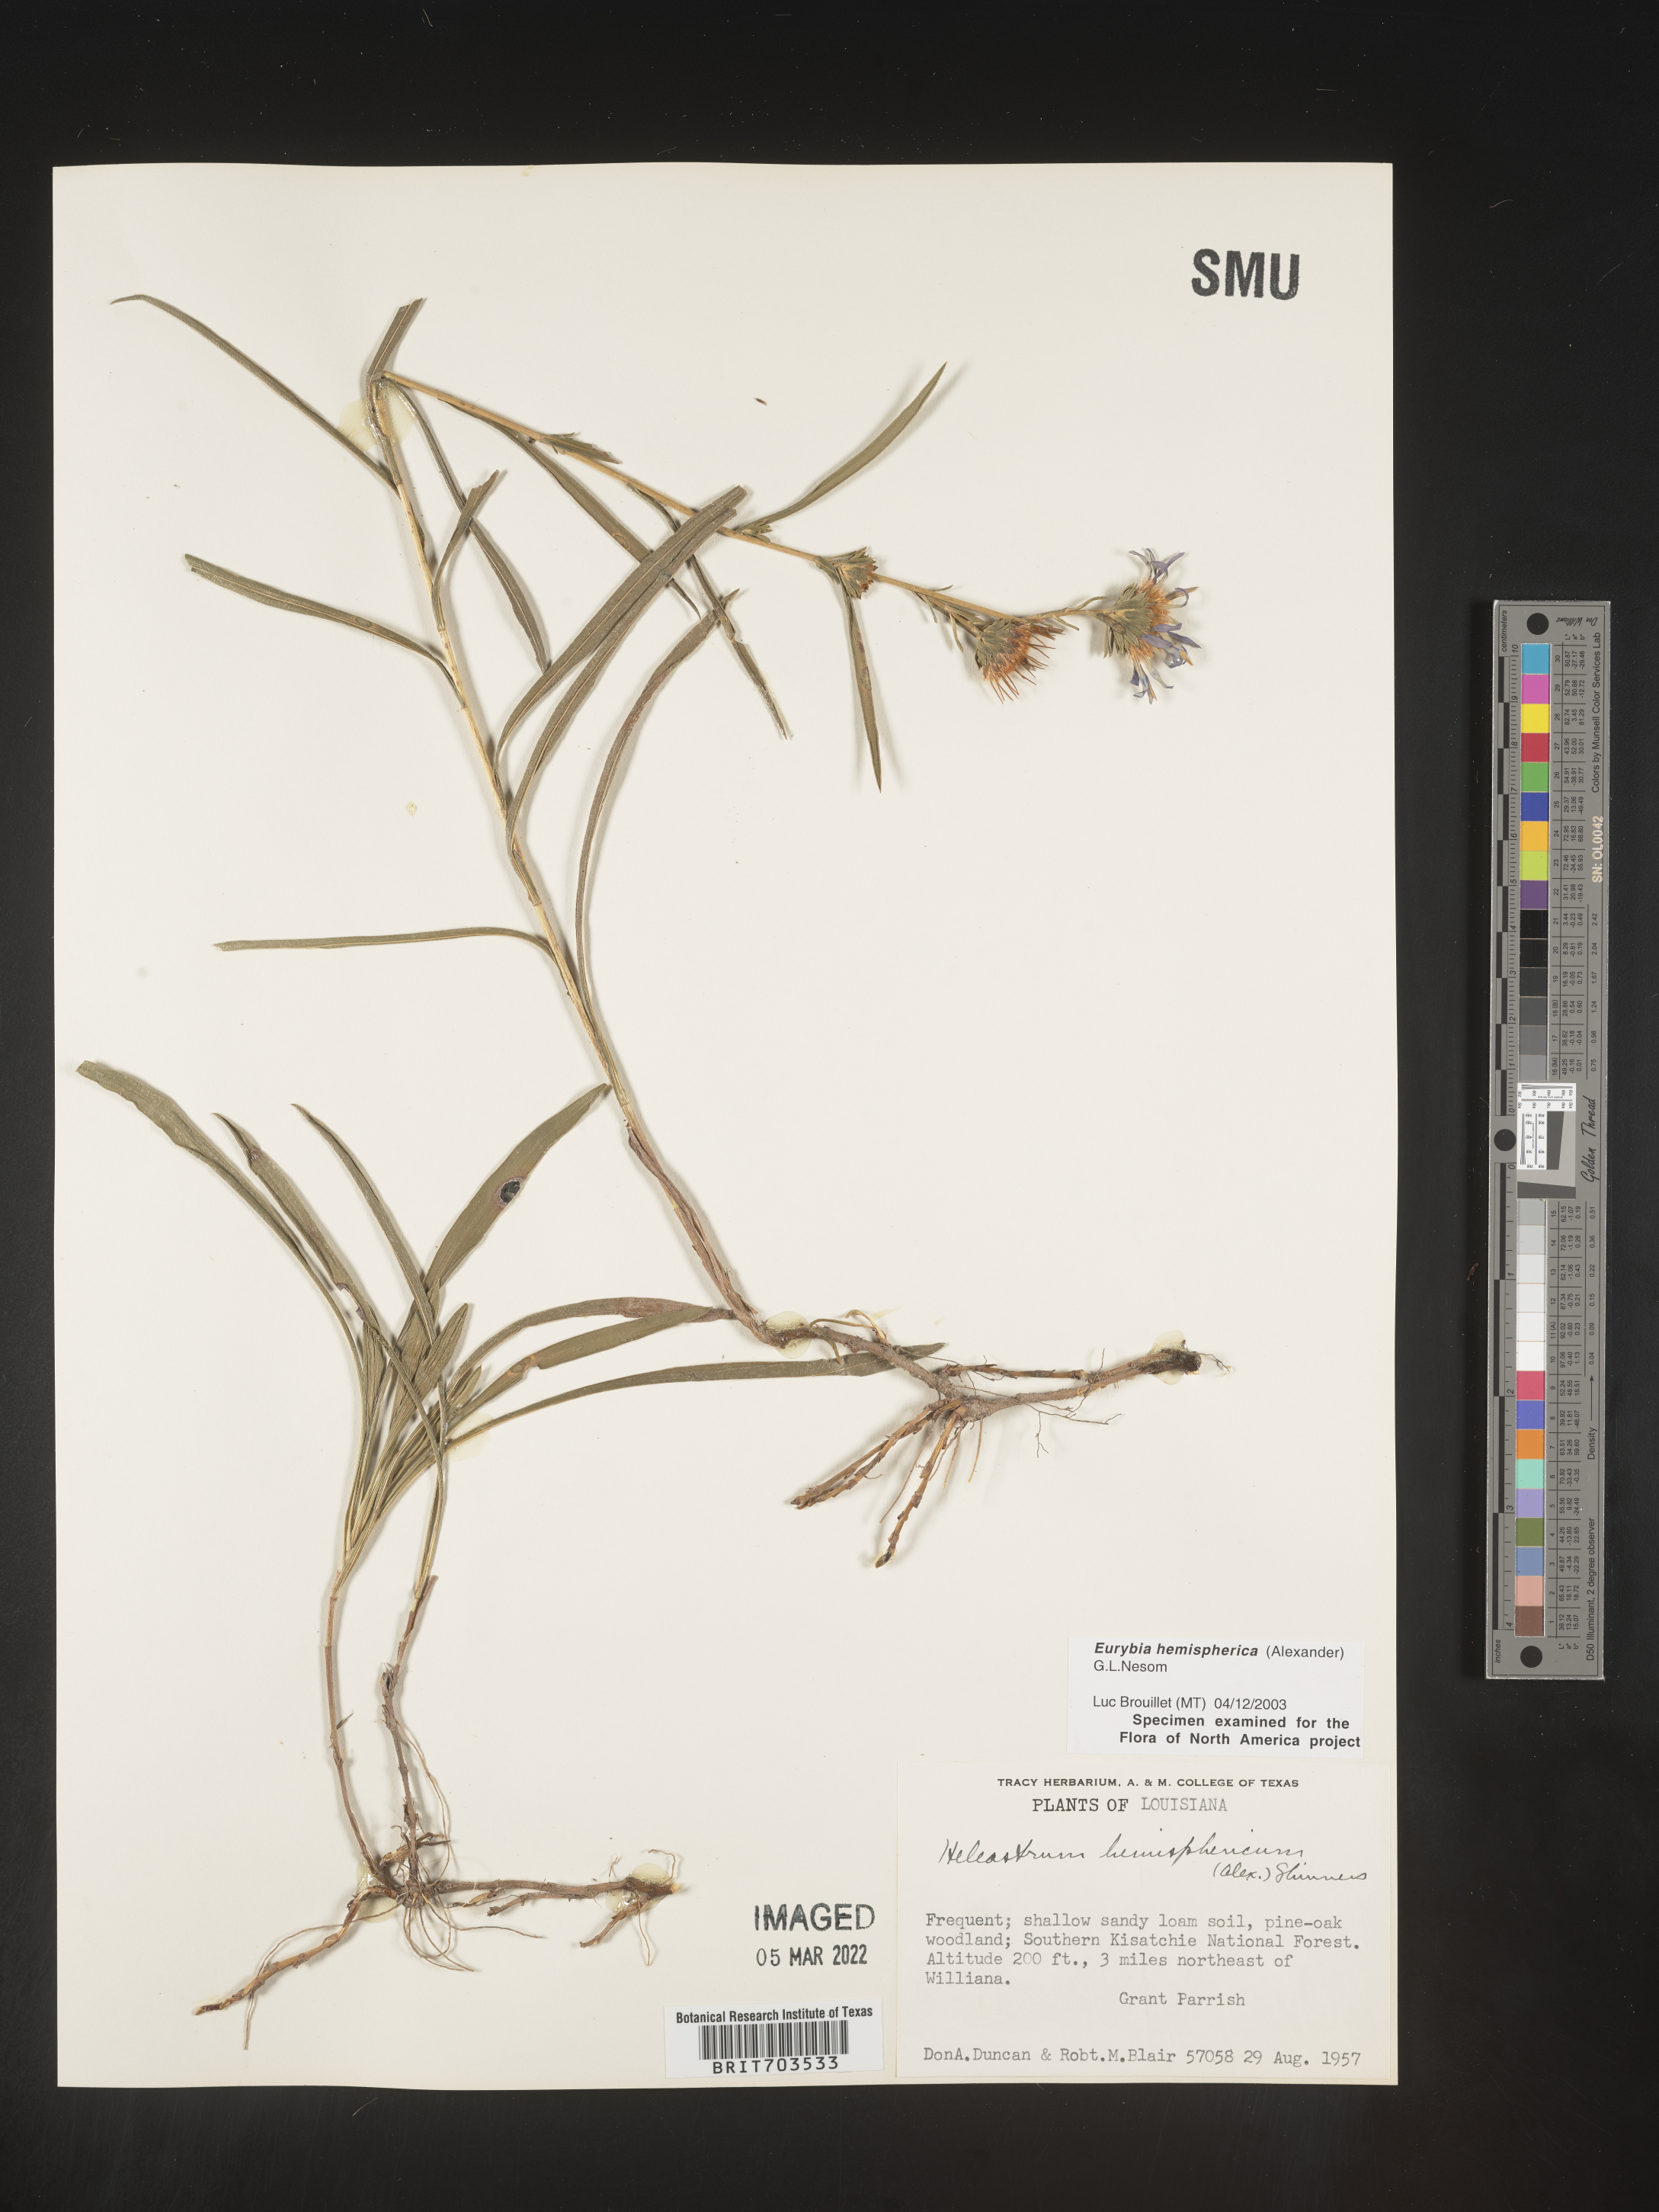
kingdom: Plantae
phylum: Tracheophyta
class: Magnoliopsida
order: Asterales
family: Asteraceae
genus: Eurybia
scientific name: Eurybia hemispherica
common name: Showy aster
